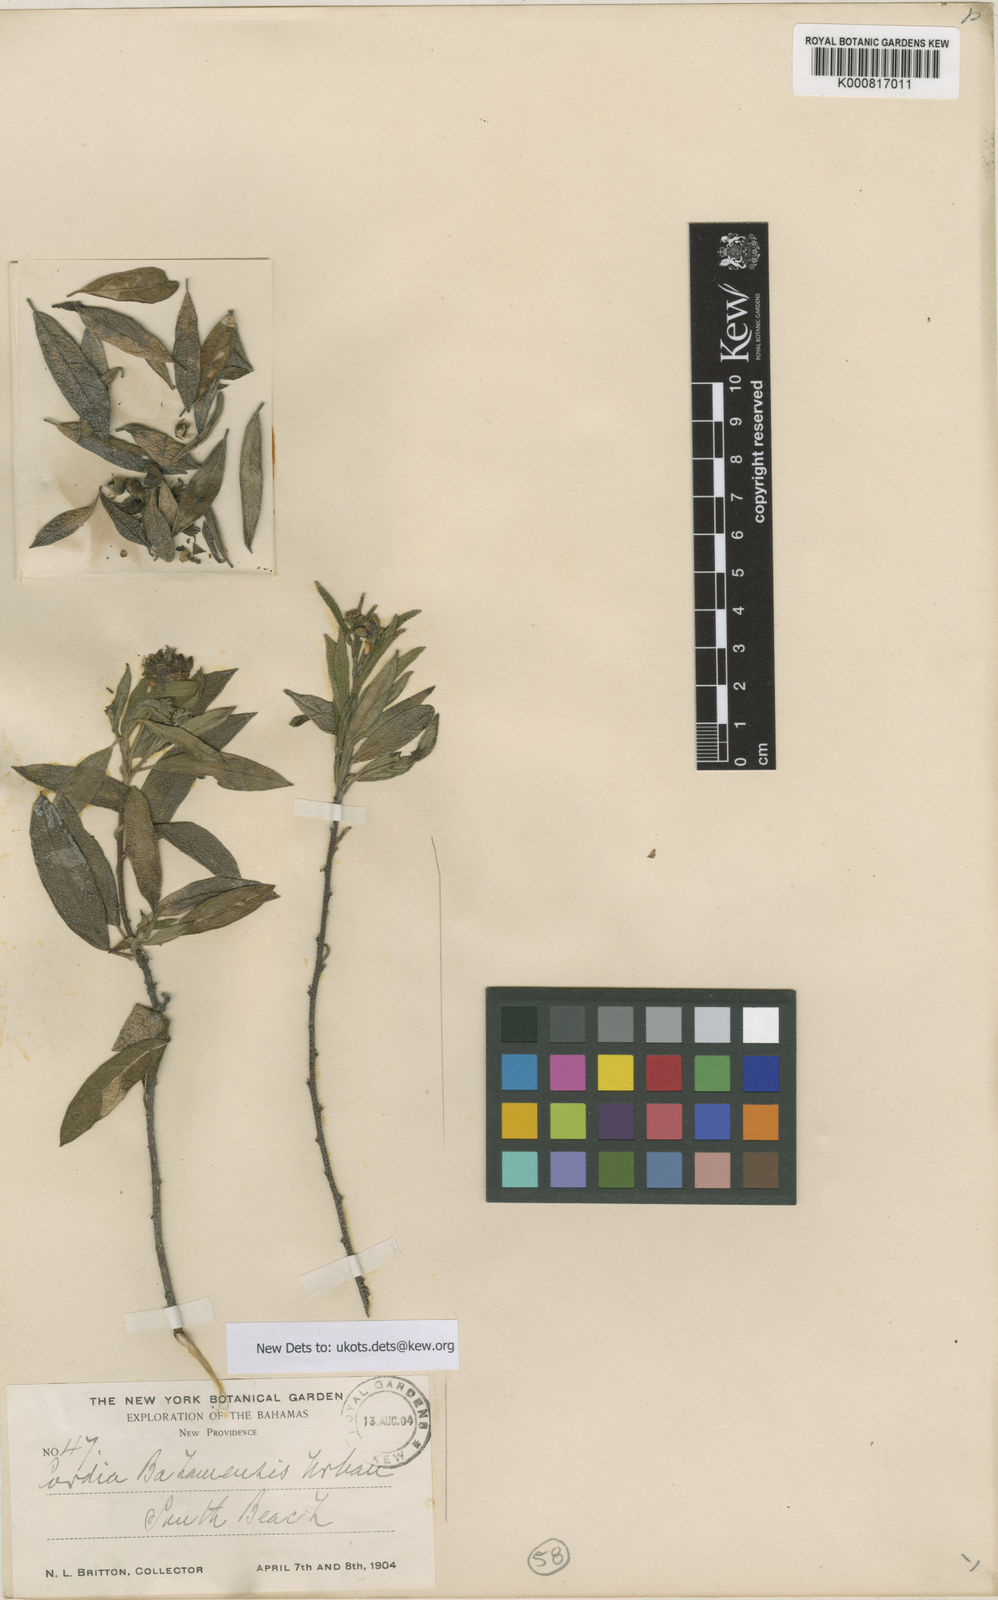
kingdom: Plantae
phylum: Tracheophyta
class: Magnoliopsida
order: Boraginales
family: Cordiaceae
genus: Varronia
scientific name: Varronia bahamensis
